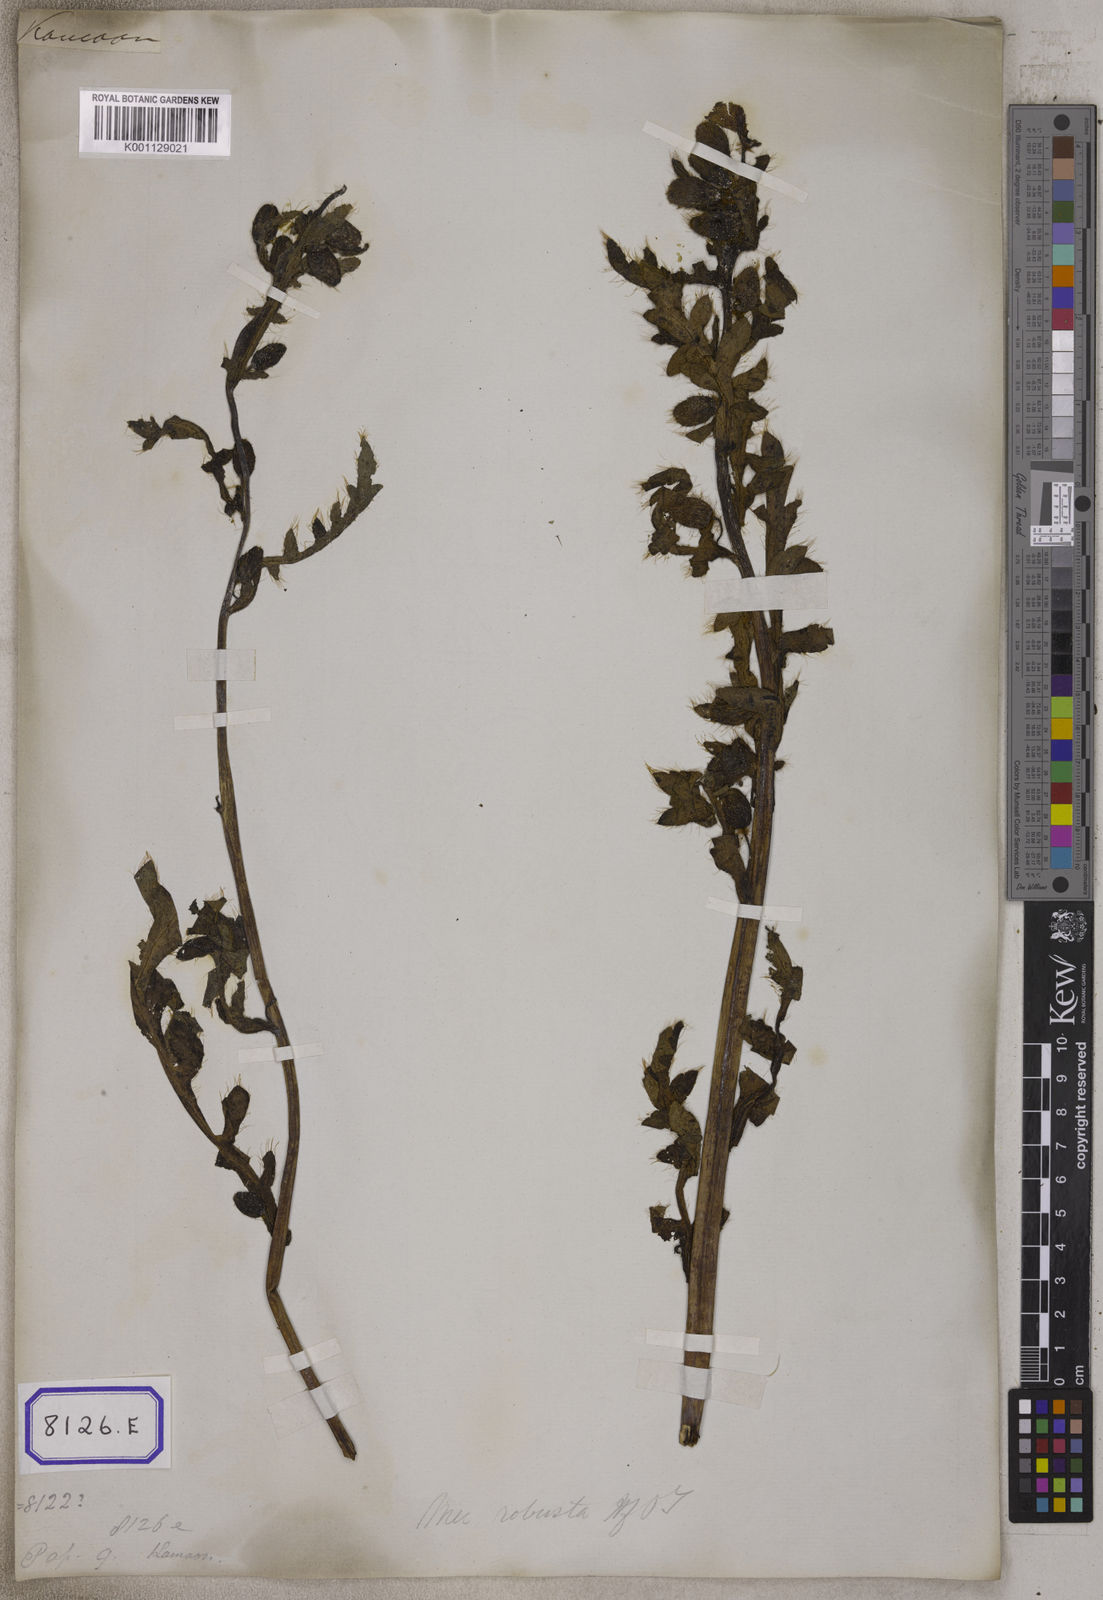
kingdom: Plantae
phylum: Tracheophyta
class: Magnoliopsida
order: Ranunculales
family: Papaveraceae
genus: Argemone
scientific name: Argemone mexicana
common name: Mexican poppy
